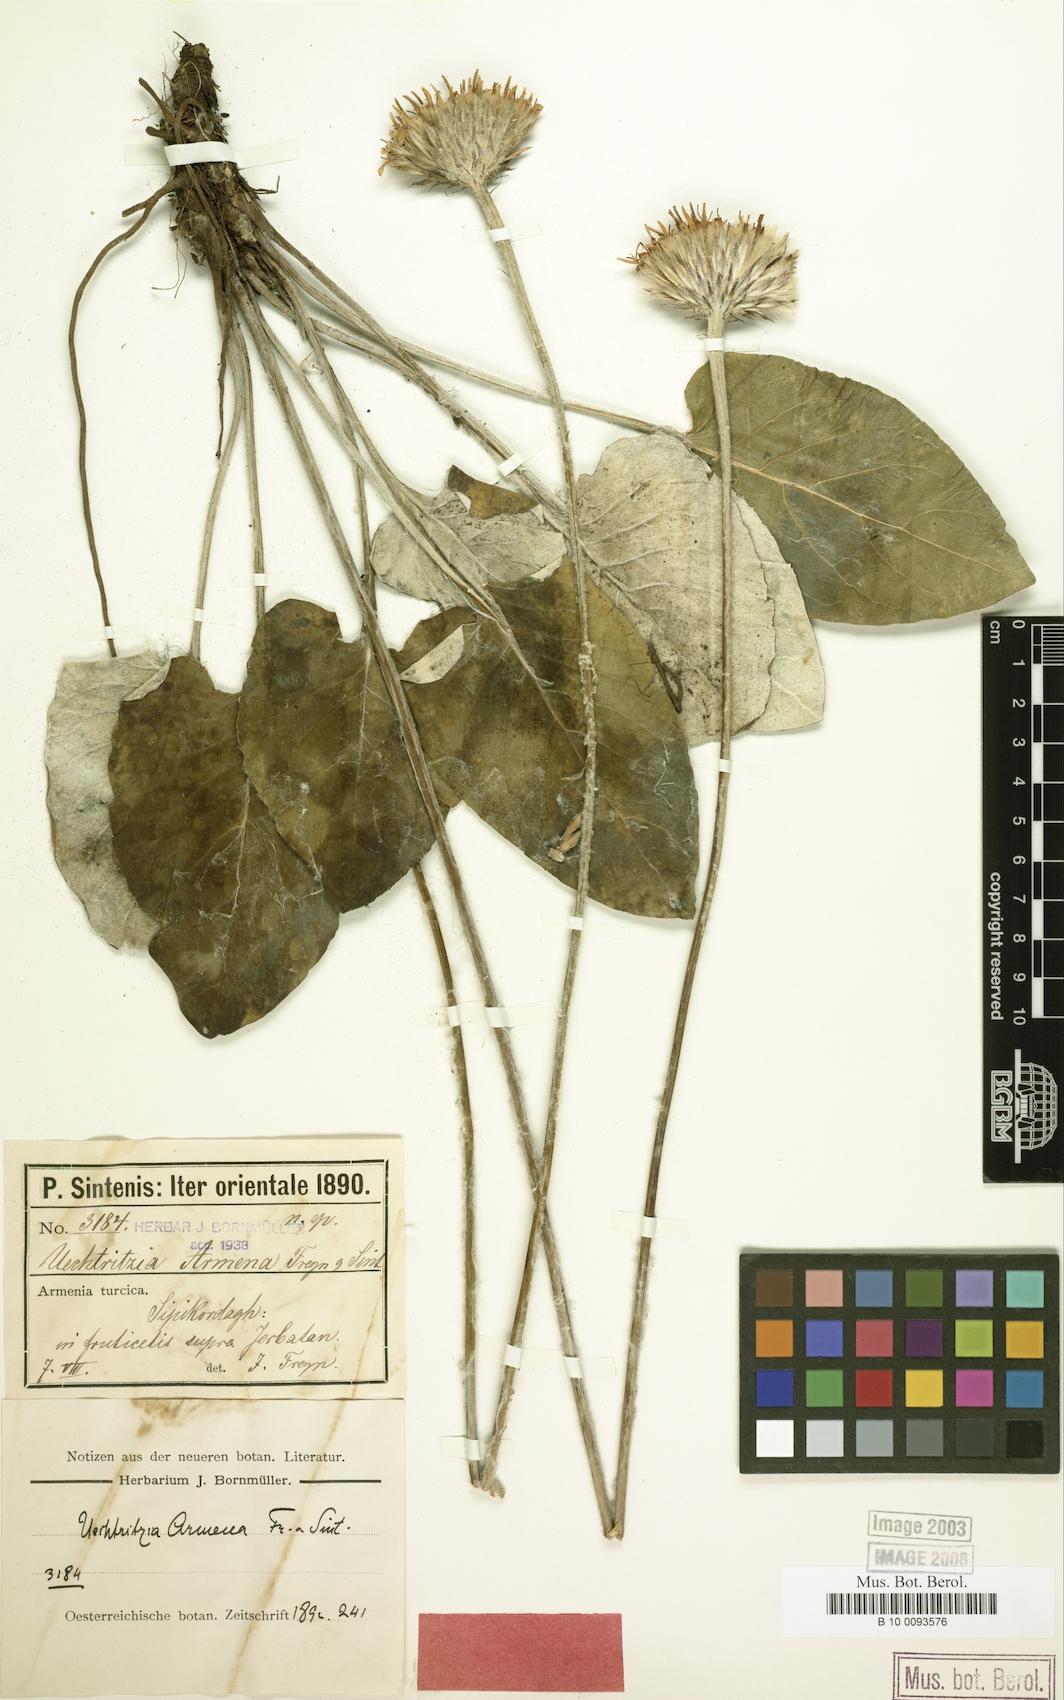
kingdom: Plantae
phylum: Tracheophyta
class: Magnoliopsida
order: Asterales
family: Asteraceae
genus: Oreoseris
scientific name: Oreoseris armena
